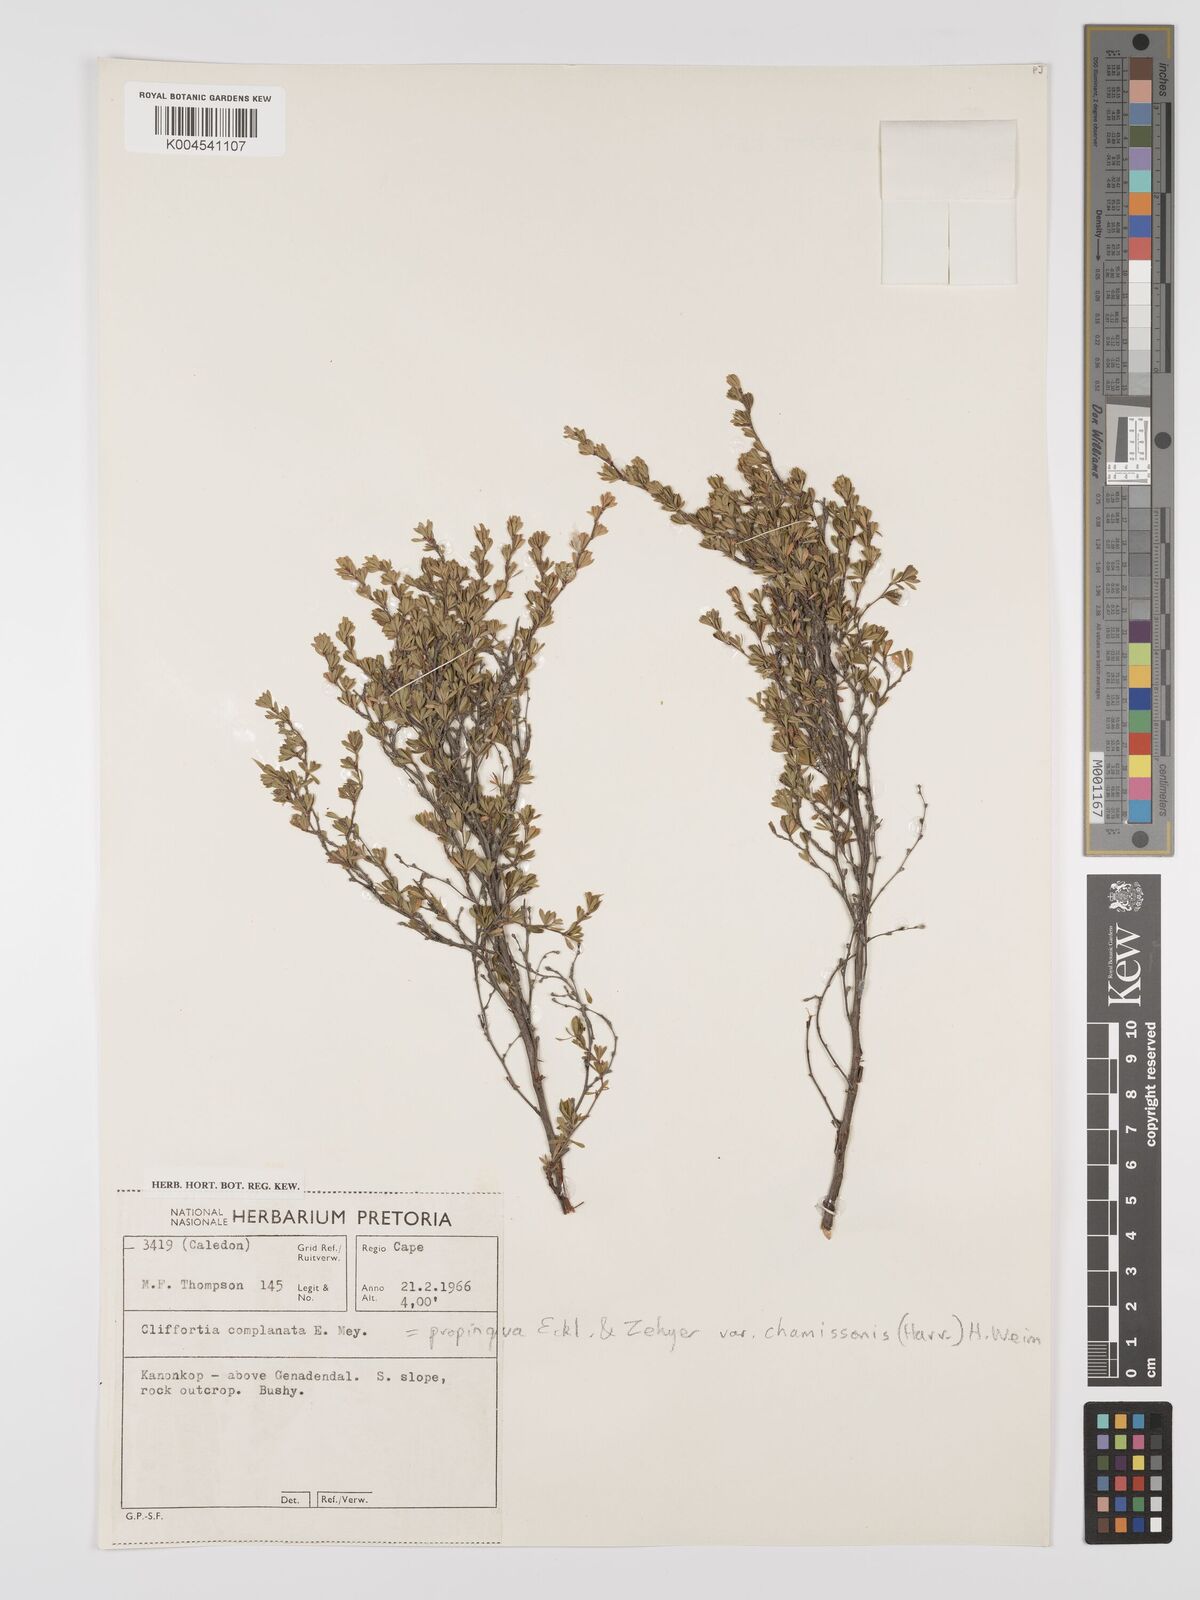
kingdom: Plantae
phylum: Tracheophyta
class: Magnoliopsida
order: Rosales
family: Rosaceae
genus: Cliffortia
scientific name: Cliffortia complanata
